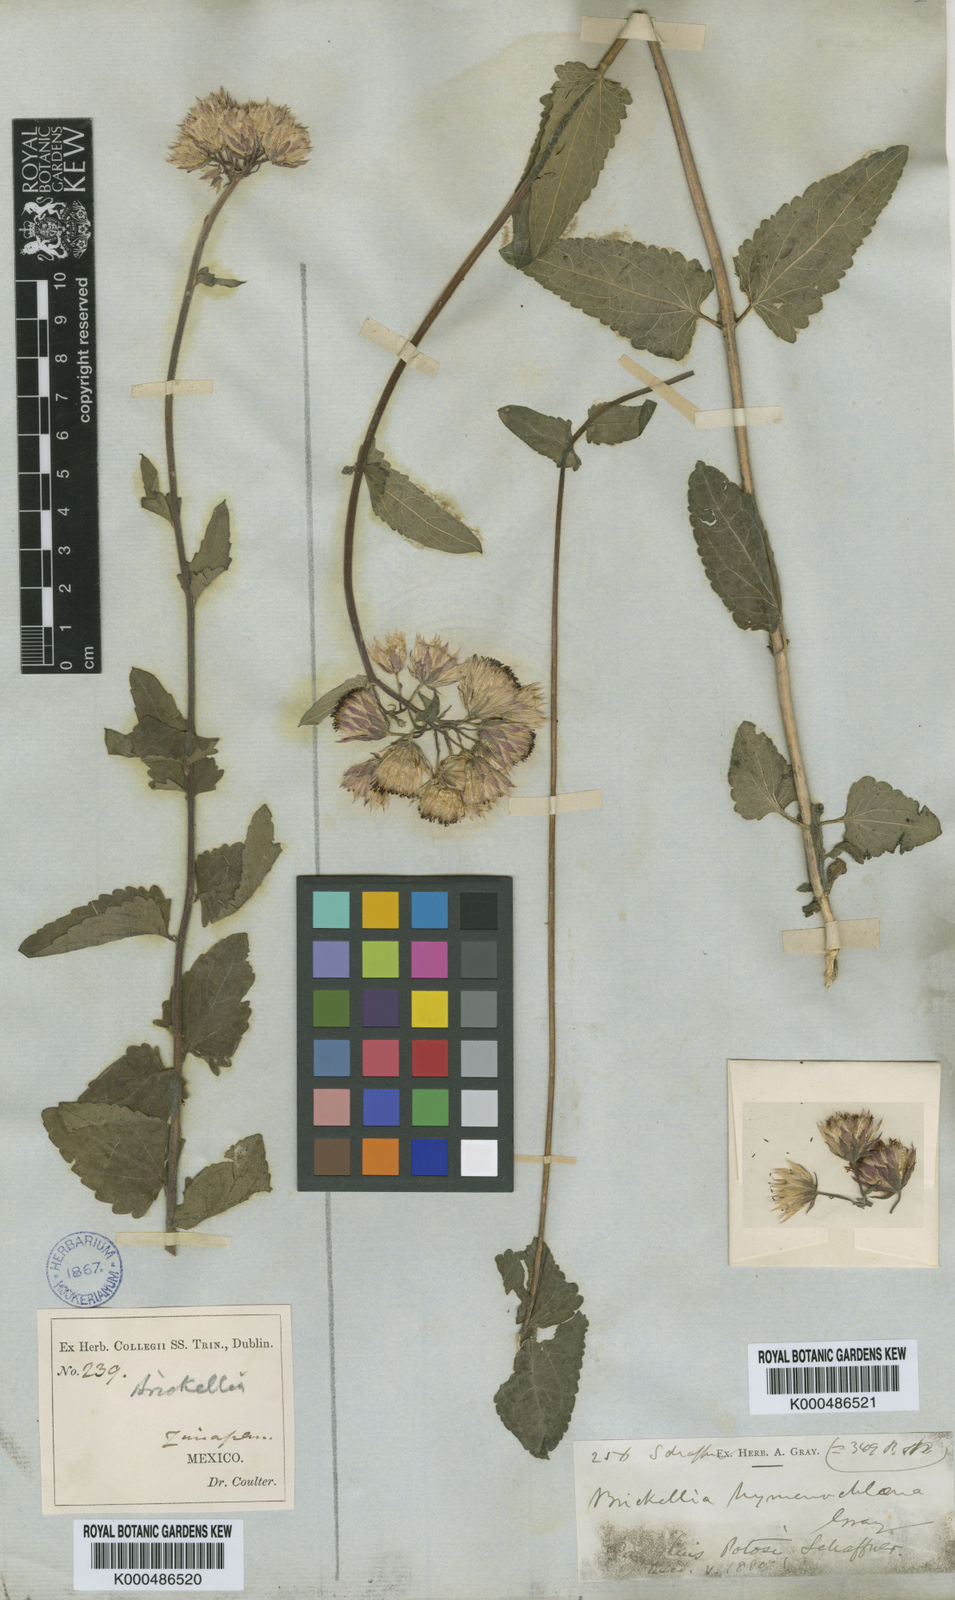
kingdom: Plantae
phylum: Tracheophyta
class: Magnoliopsida
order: Asterales
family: Asteraceae
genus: Brickellia
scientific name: Brickellia hymenochlaena
